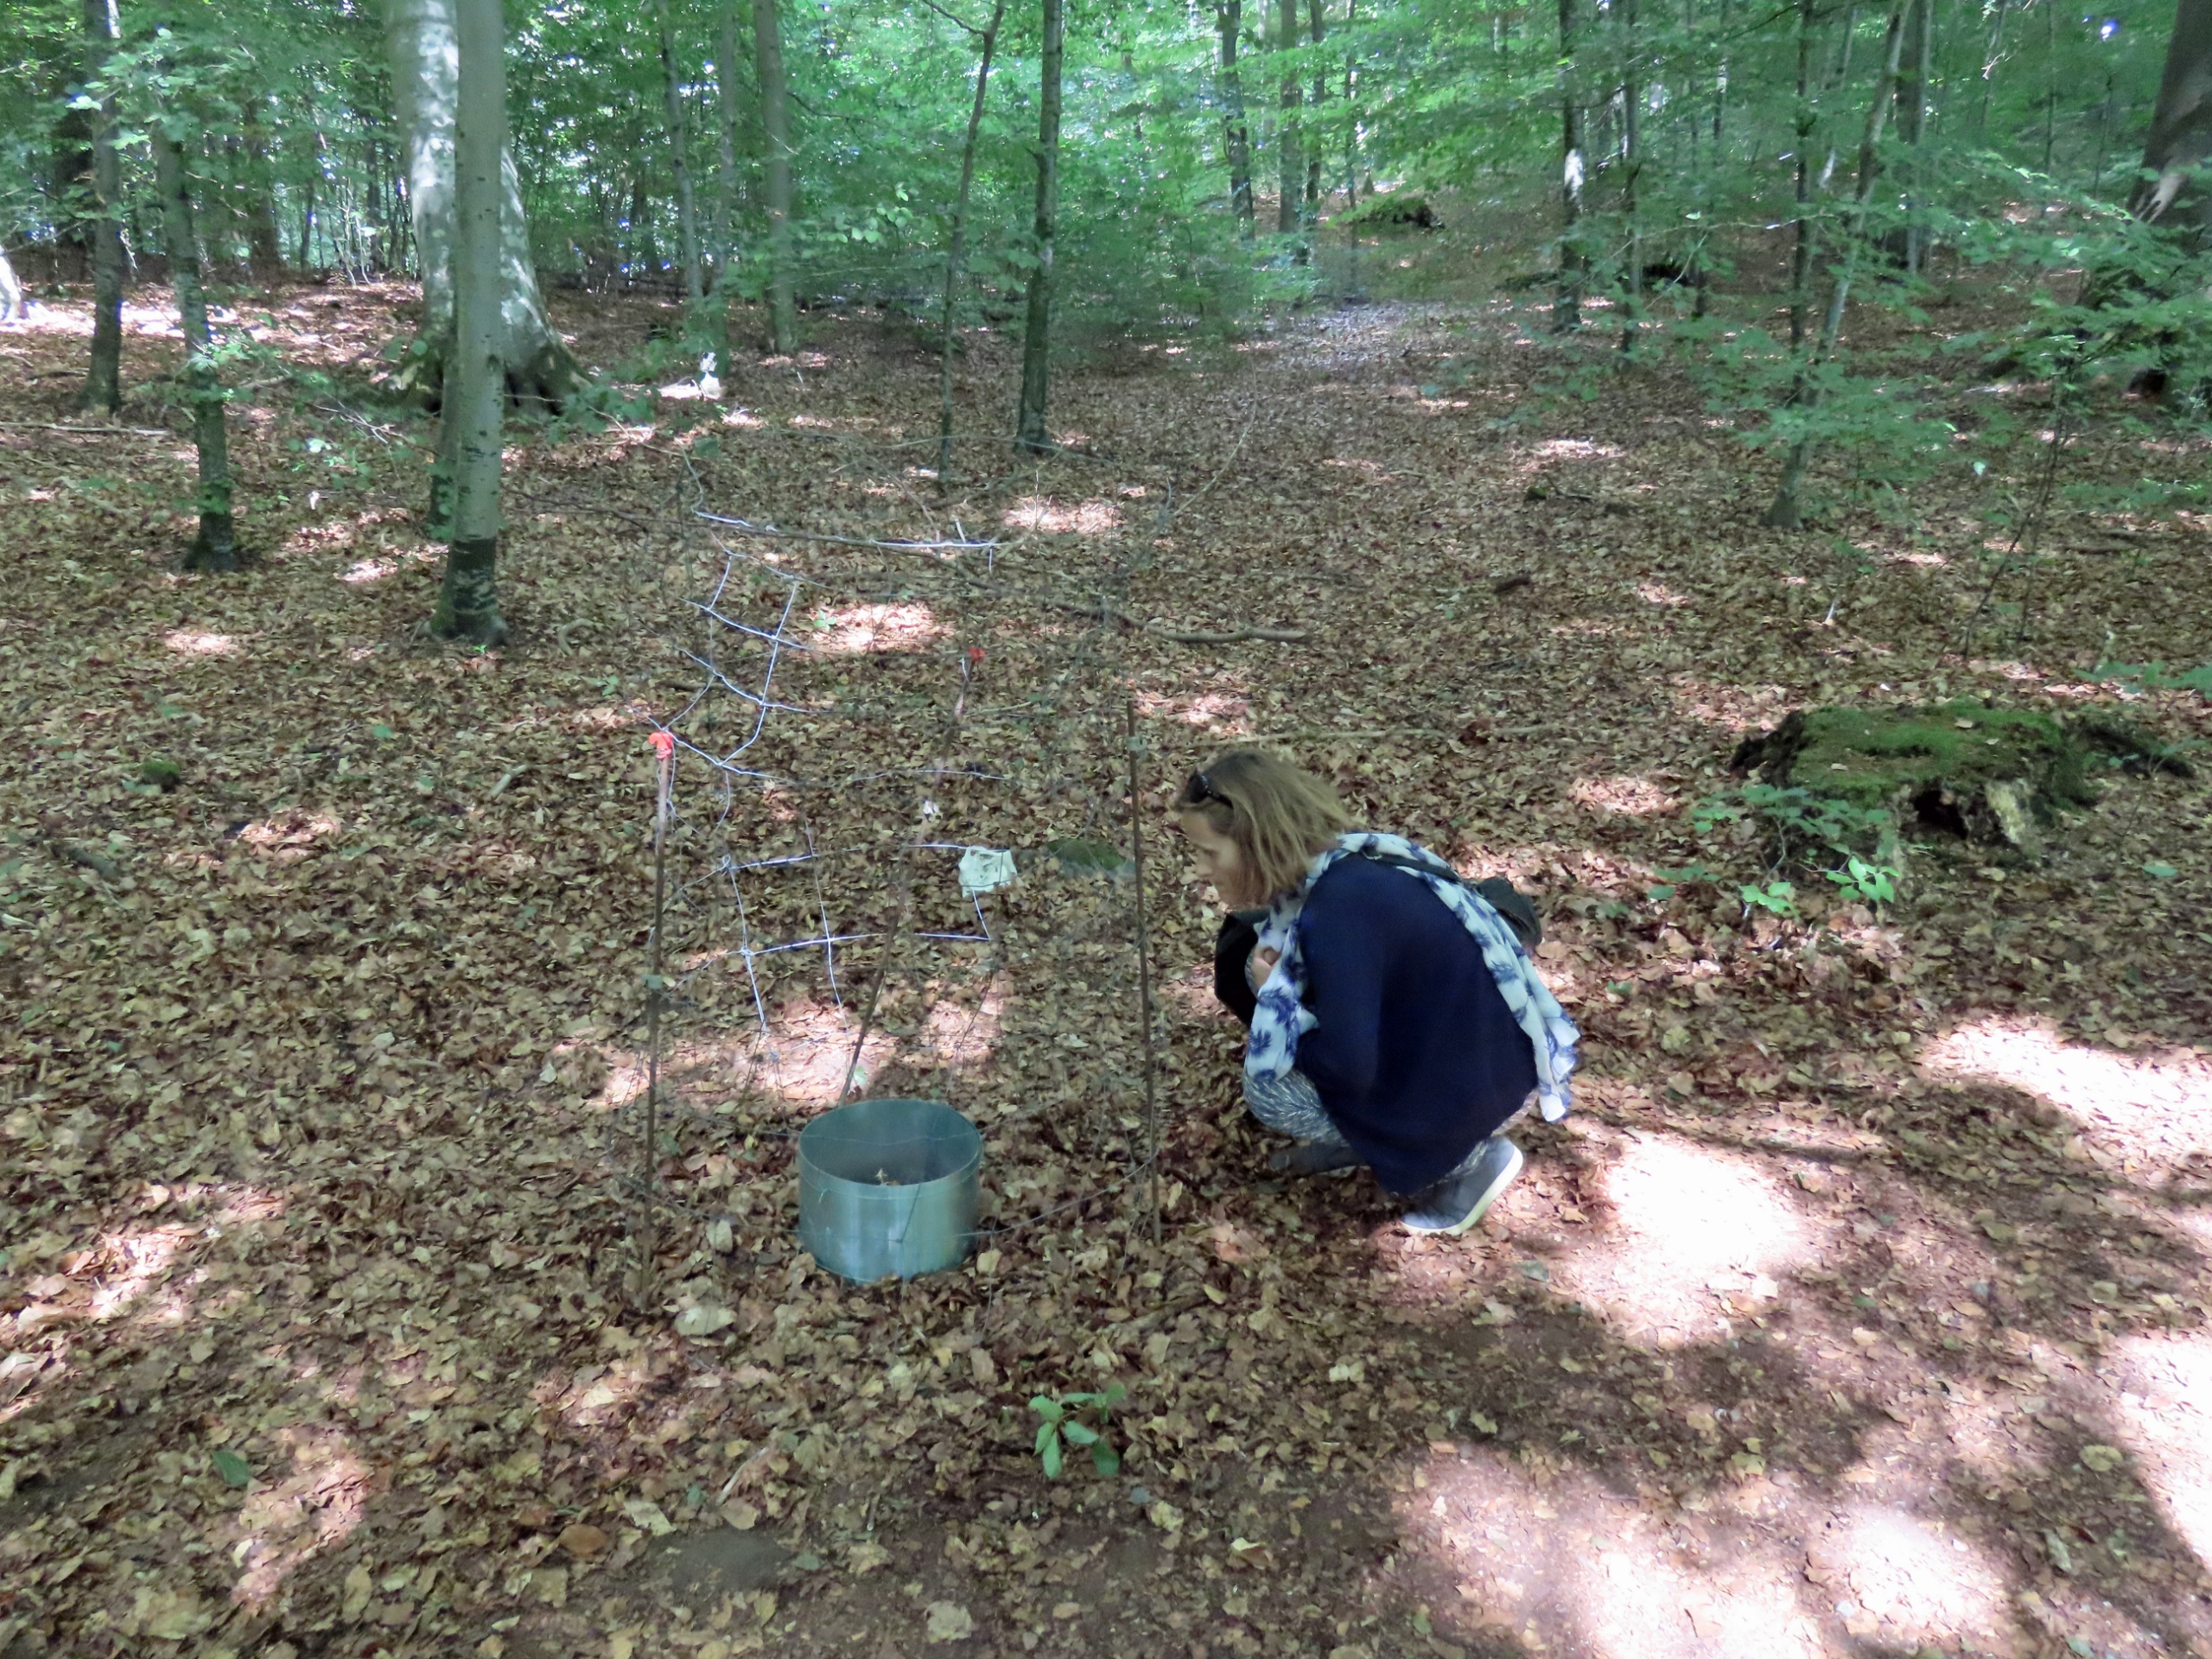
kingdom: Plantae
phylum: Tracheophyta
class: Liliopsida
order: Asparagales
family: Orchidaceae
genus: Epipogium
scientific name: Epipogium aphyllum
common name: Knælæbe
